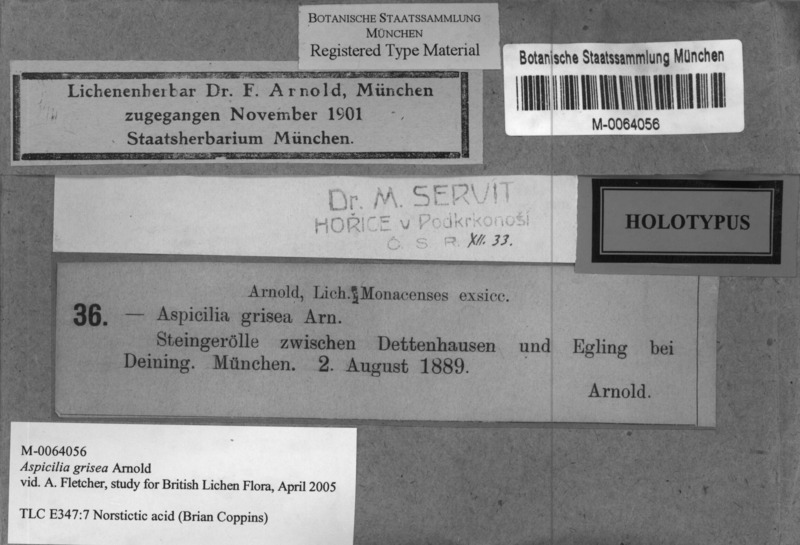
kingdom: Fungi
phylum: Ascomycota
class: Lecanoromycetes
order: Pertusariales
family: Megasporaceae
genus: Aspicilia
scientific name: Aspicilia grisea
